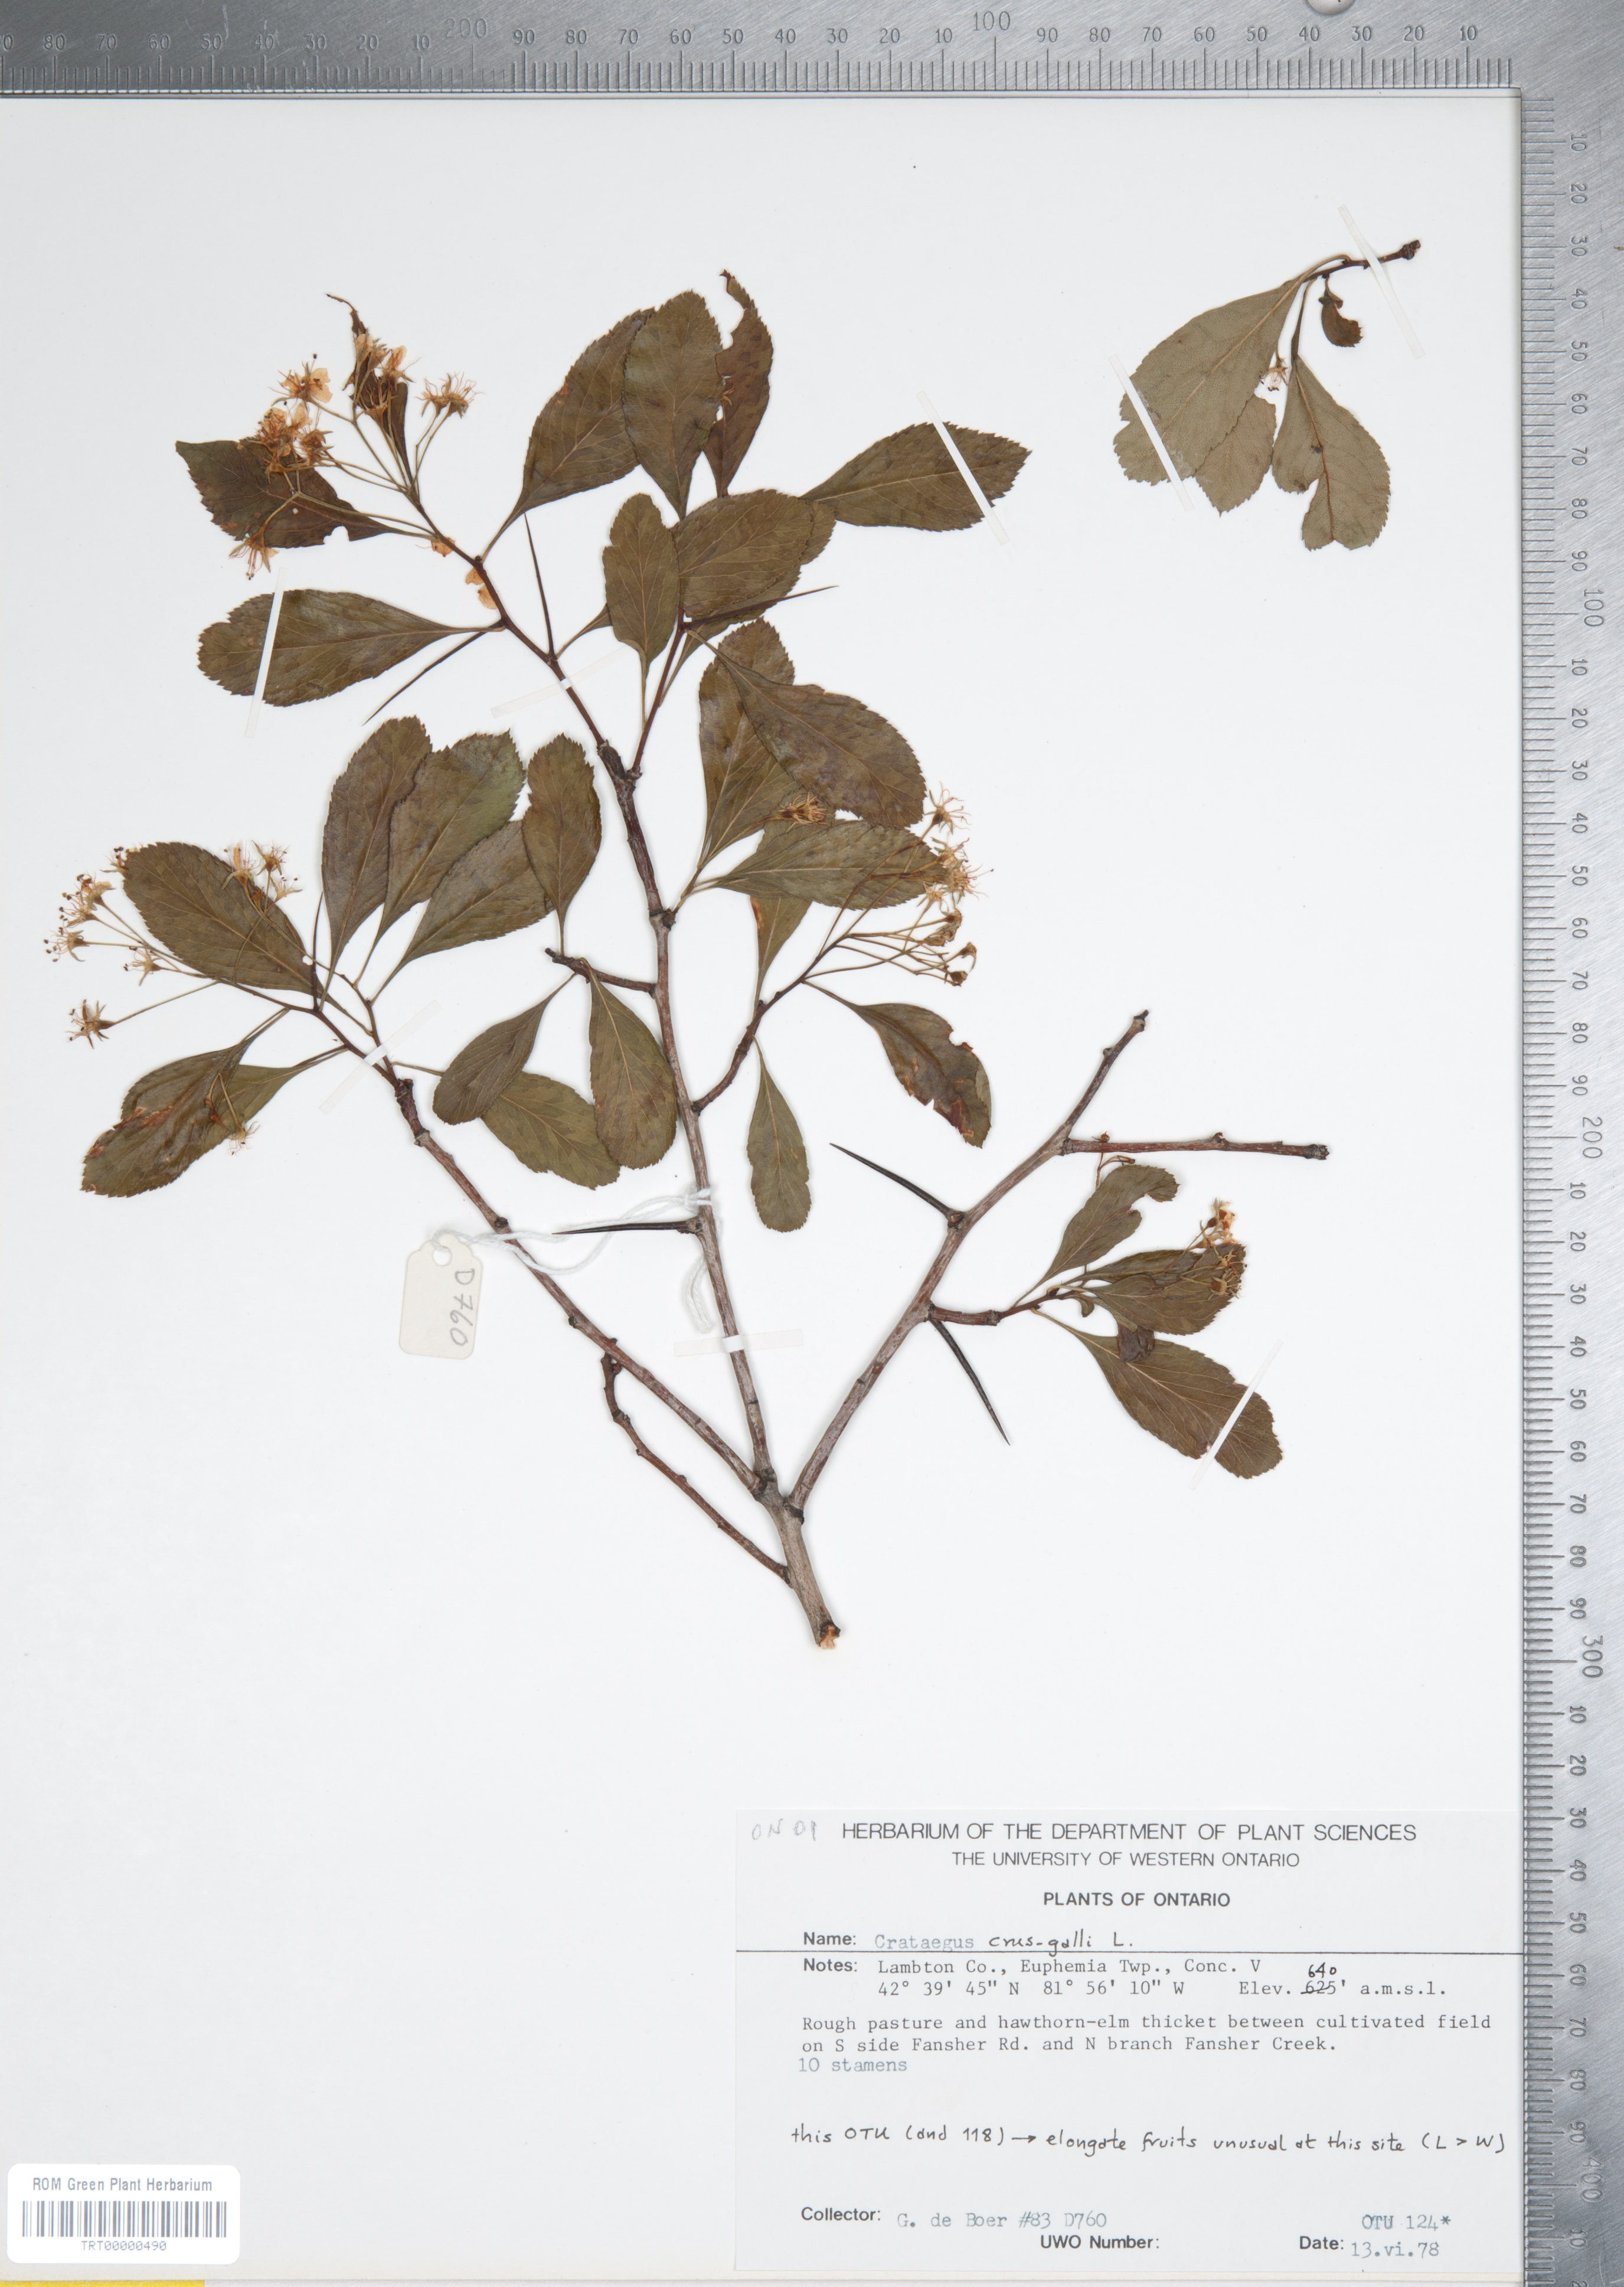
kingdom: Plantae
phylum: Tracheophyta
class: Magnoliopsida
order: Rosales
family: Rosaceae
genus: Crataegus
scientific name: Crataegus crus-galli
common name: Cockspurthorn
